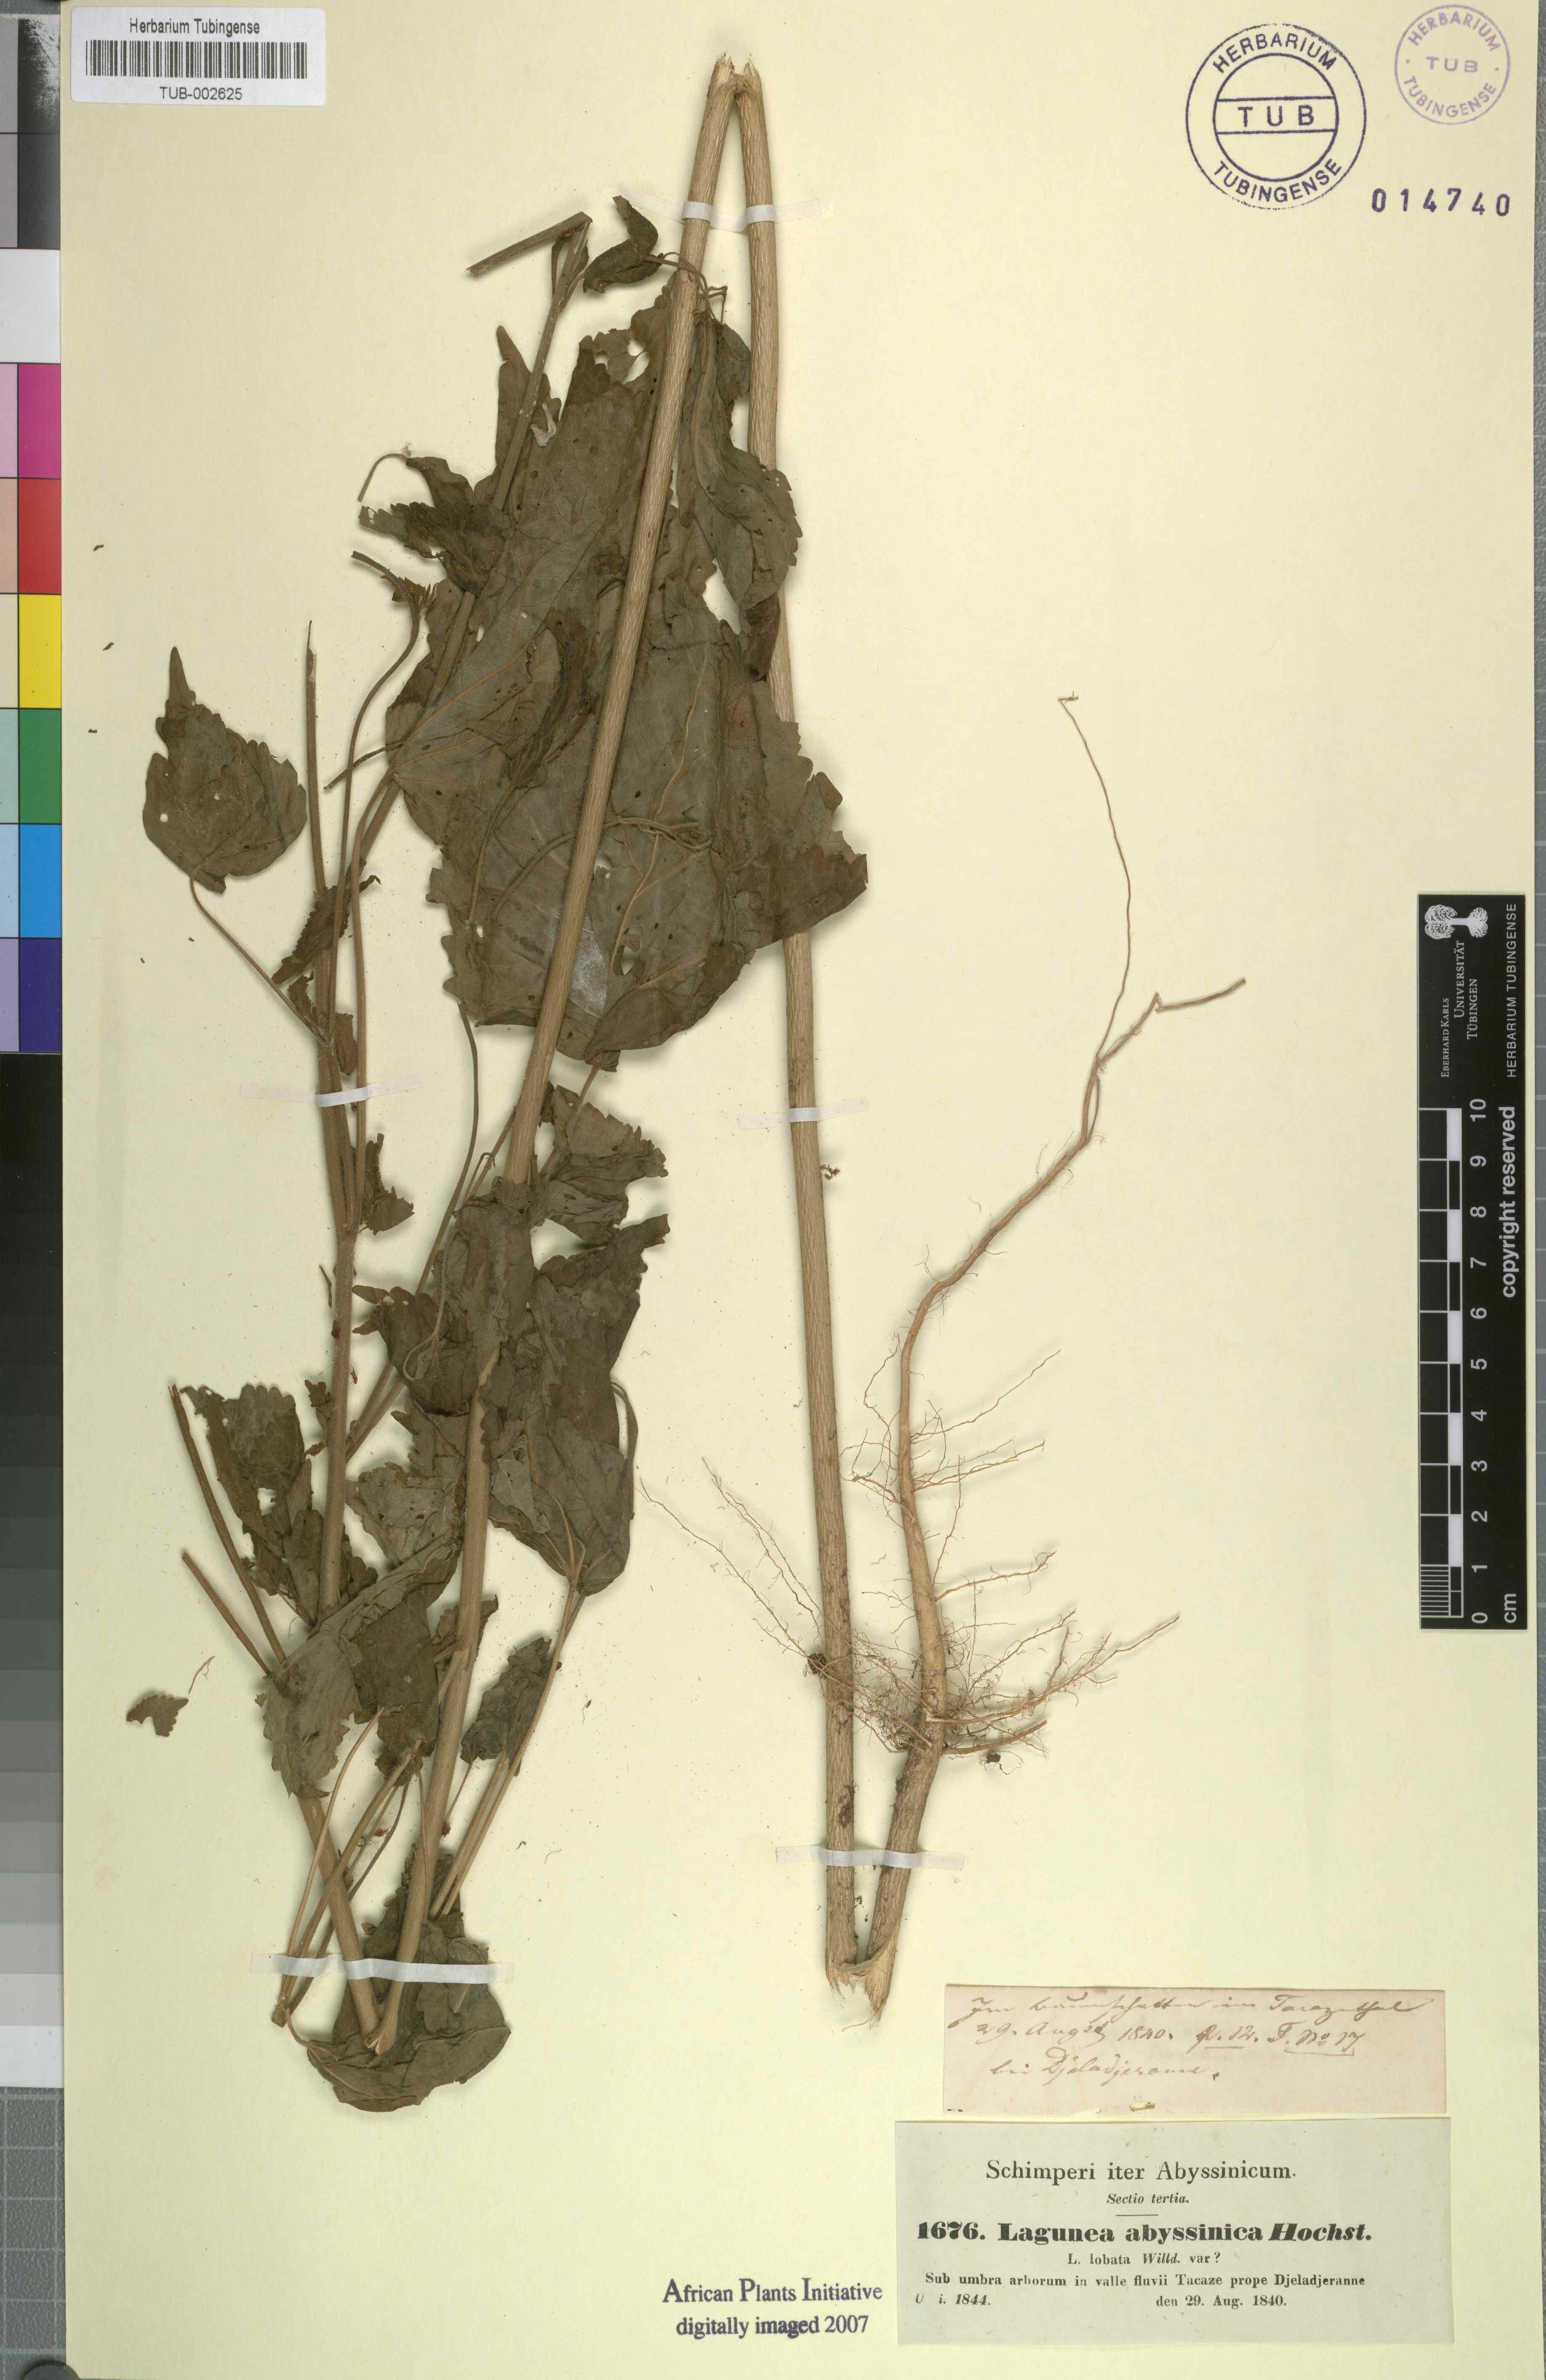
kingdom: Plantae
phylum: Tracheophyta
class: Magnoliopsida
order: Malvales
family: Malvaceae
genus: Hibiscus
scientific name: Hibiscus lobatus
